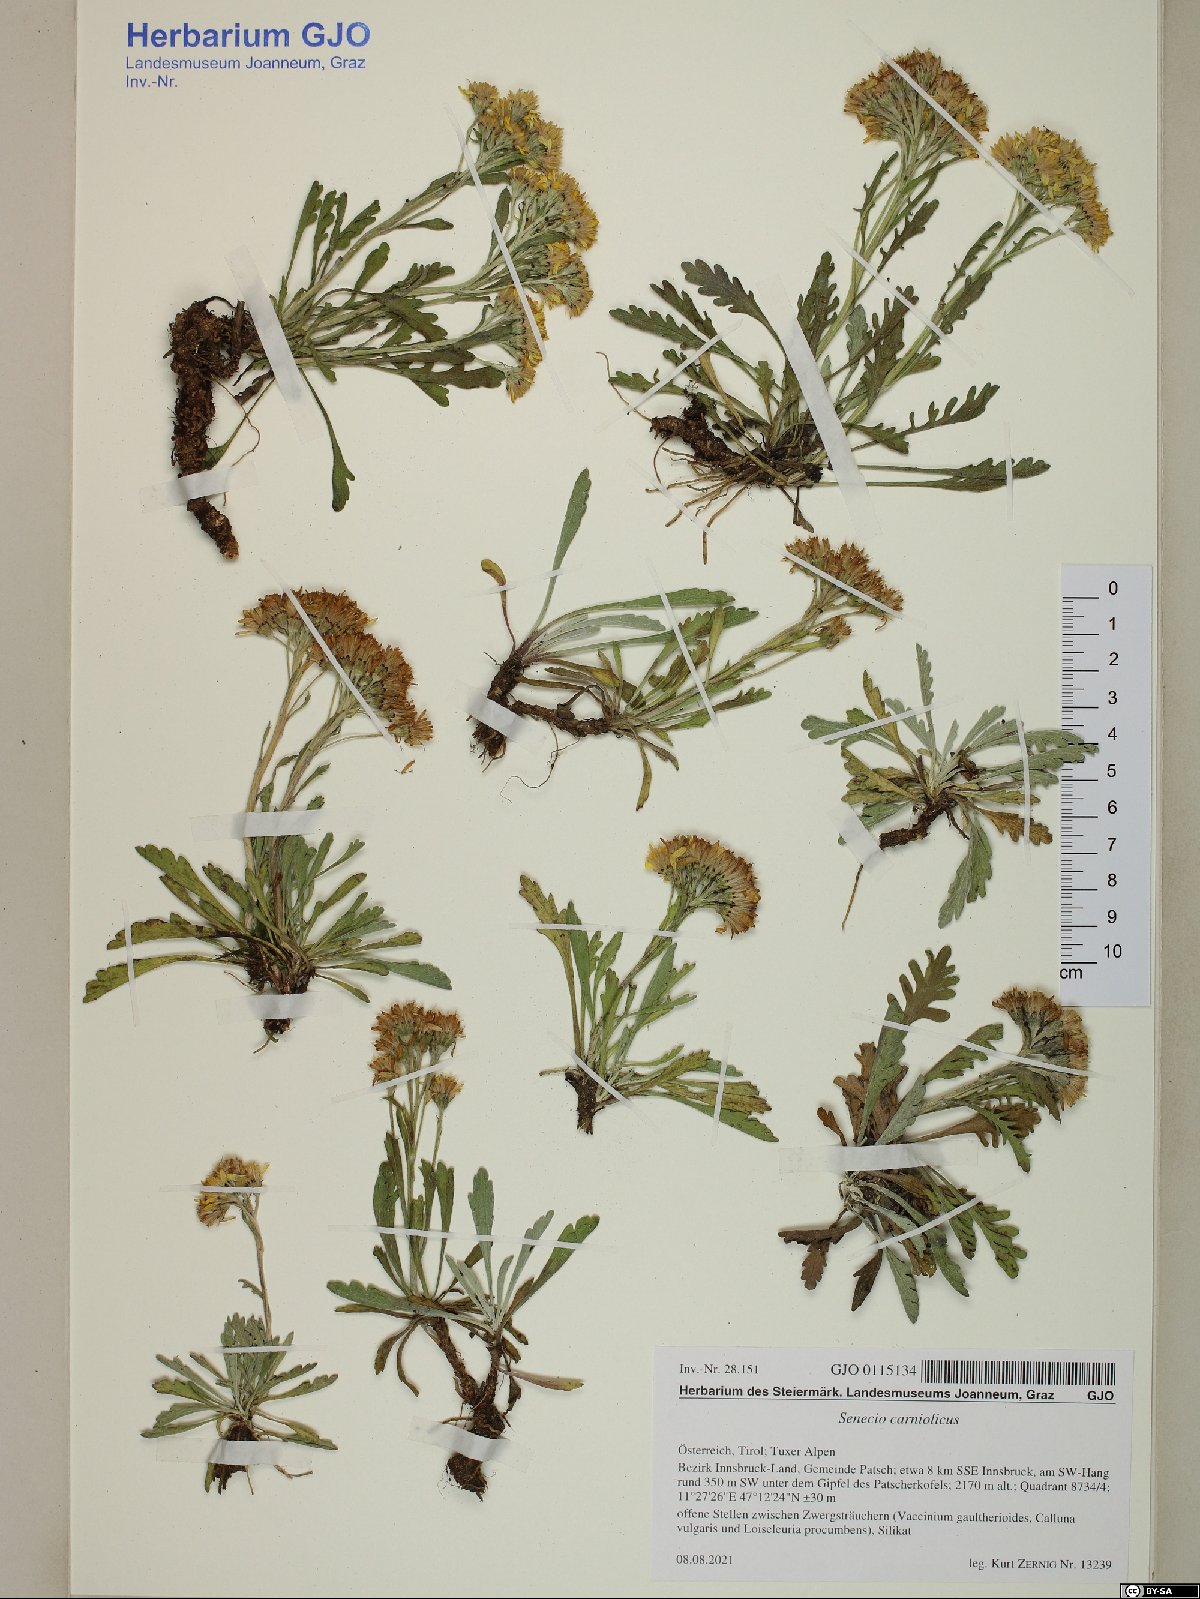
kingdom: Plantae
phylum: Tracheophyta
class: Magnoliopsida
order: Asterales
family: Asteraceae
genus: Jacobaea
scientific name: Jacobaea carniolica
